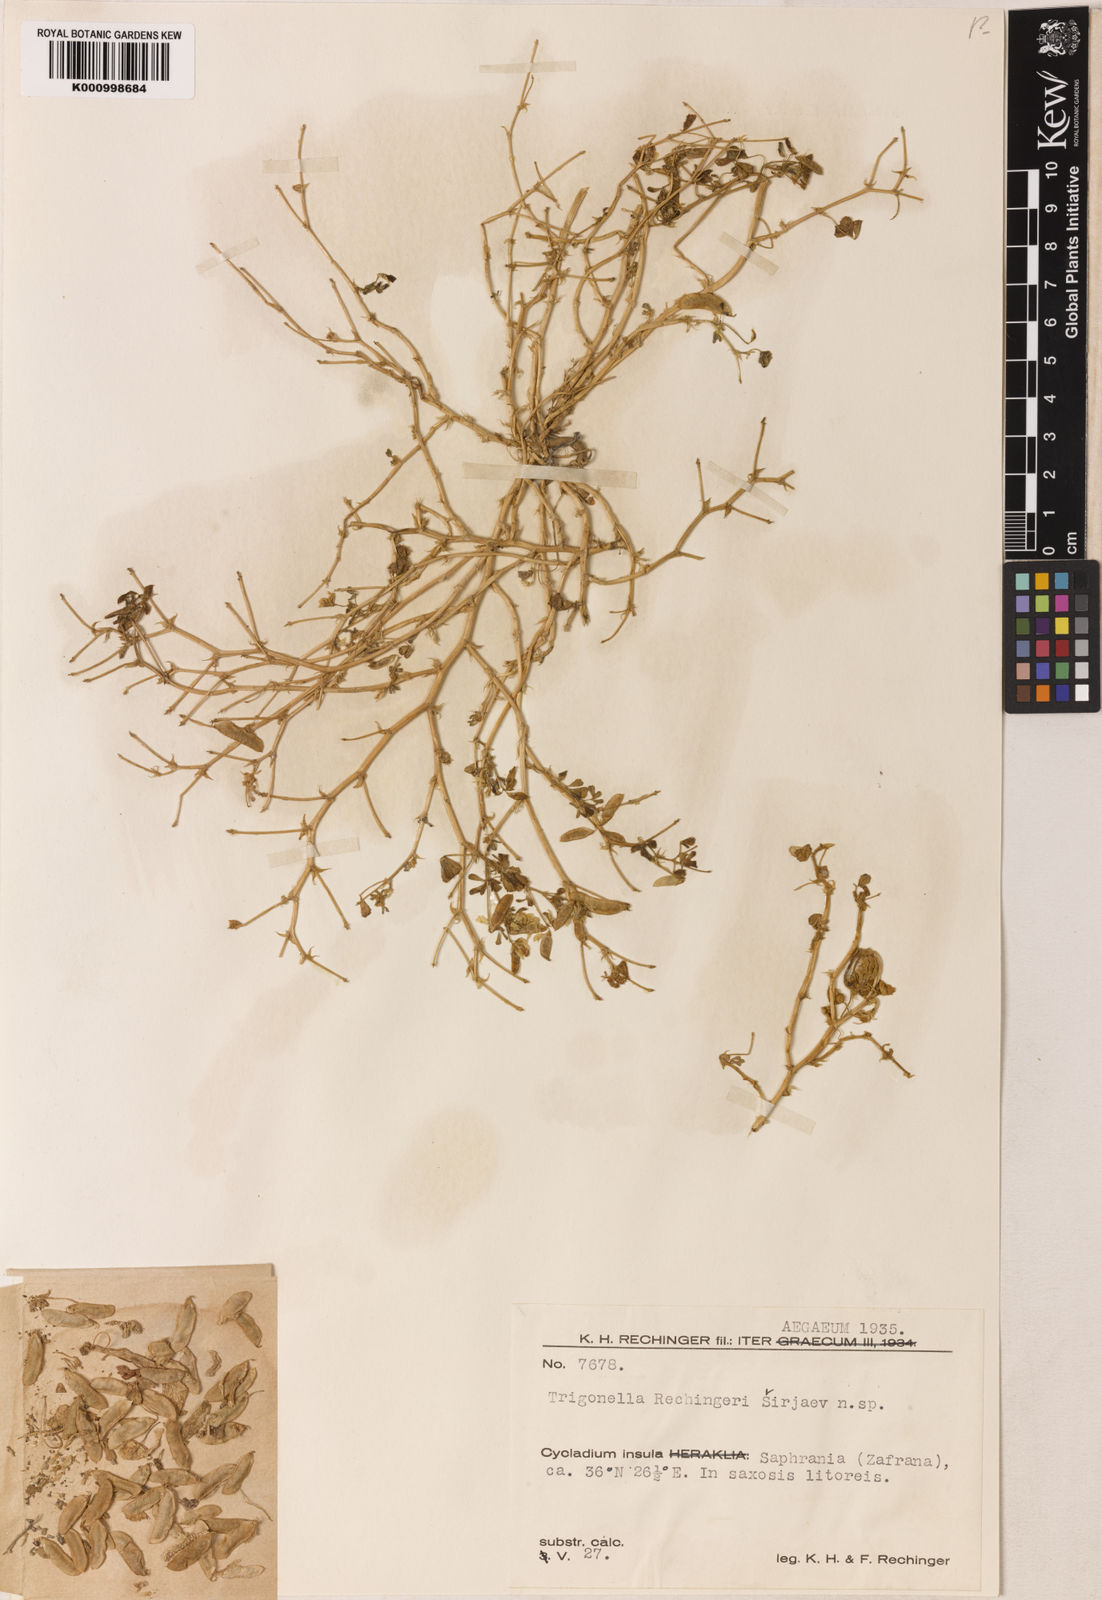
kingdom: Plantae
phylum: Tracheophyta
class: Magnoliopsida
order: Fabales
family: Fabaceae
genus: Trigonella
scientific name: Trigonella
